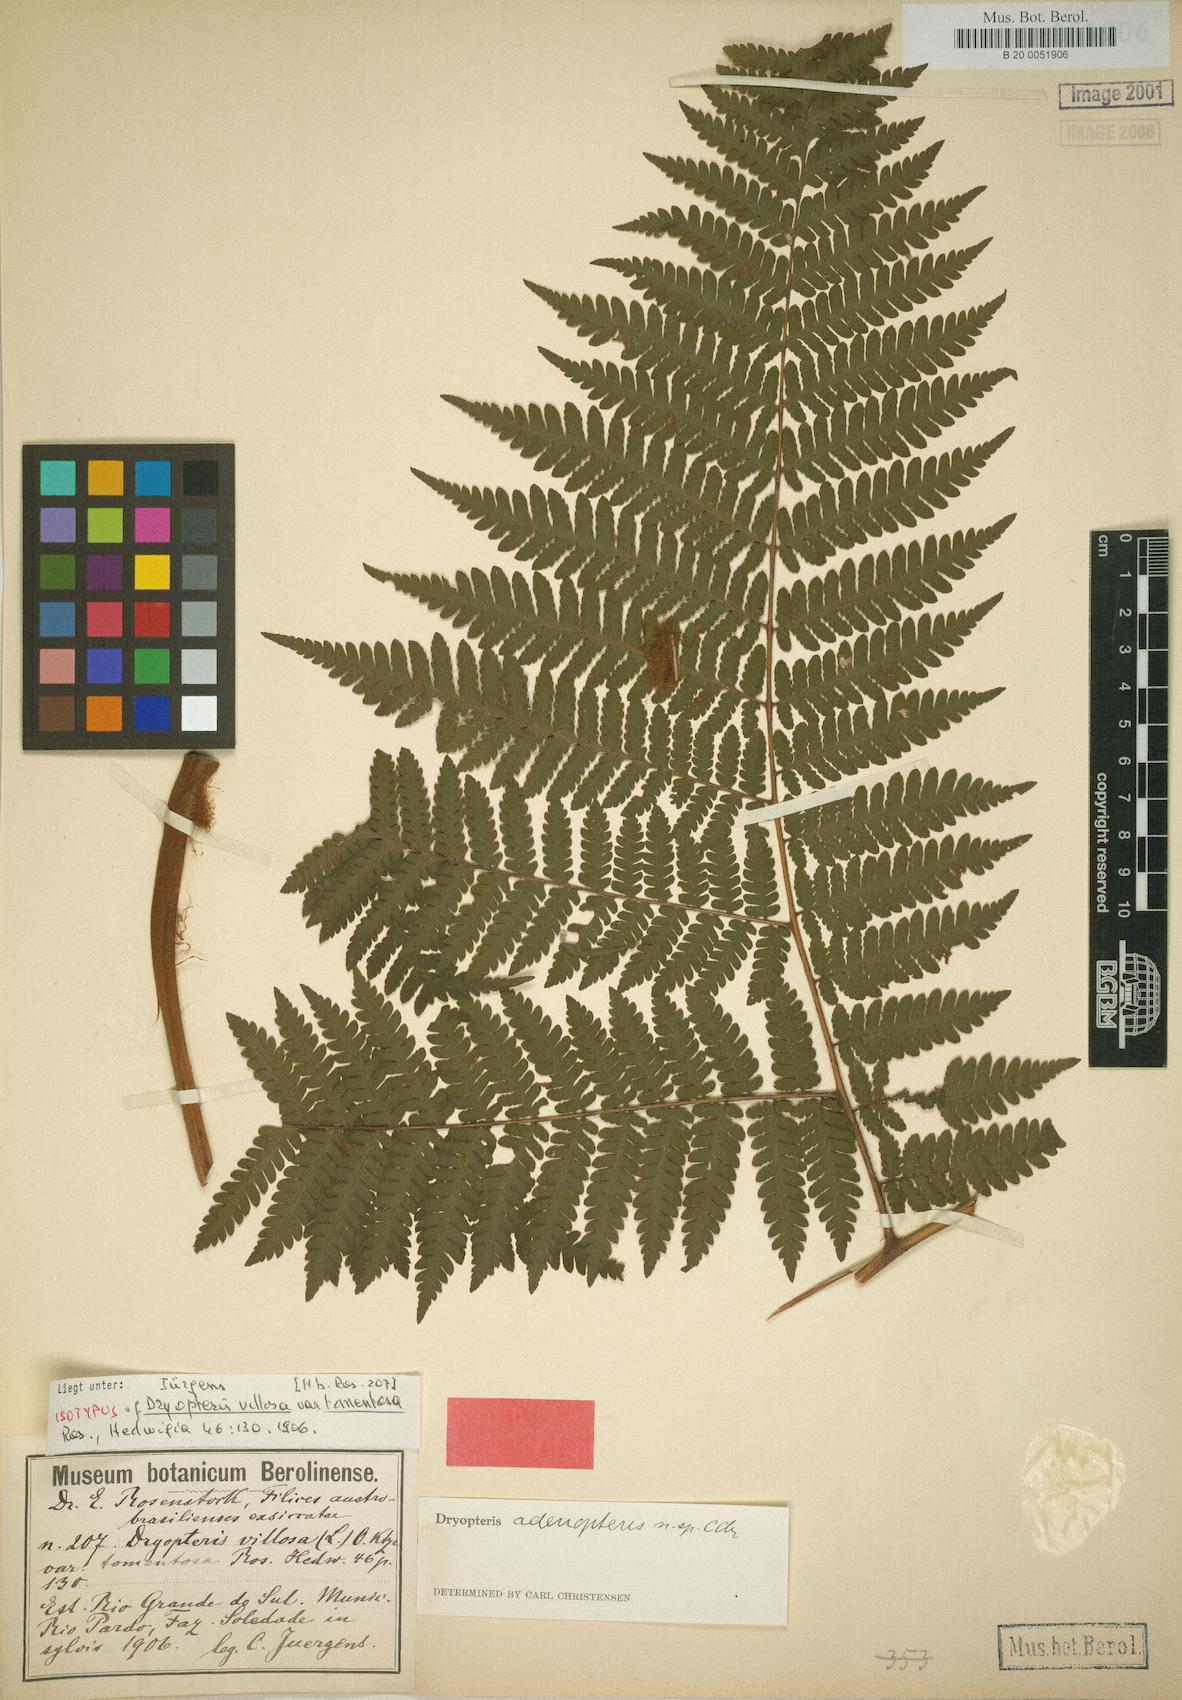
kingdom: Plantae
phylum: Tracheophyta
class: Polypodiopsida
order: Polypodiales
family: Dryopteridaceae
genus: Megalastrum
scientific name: Megalastrum adenopteris
